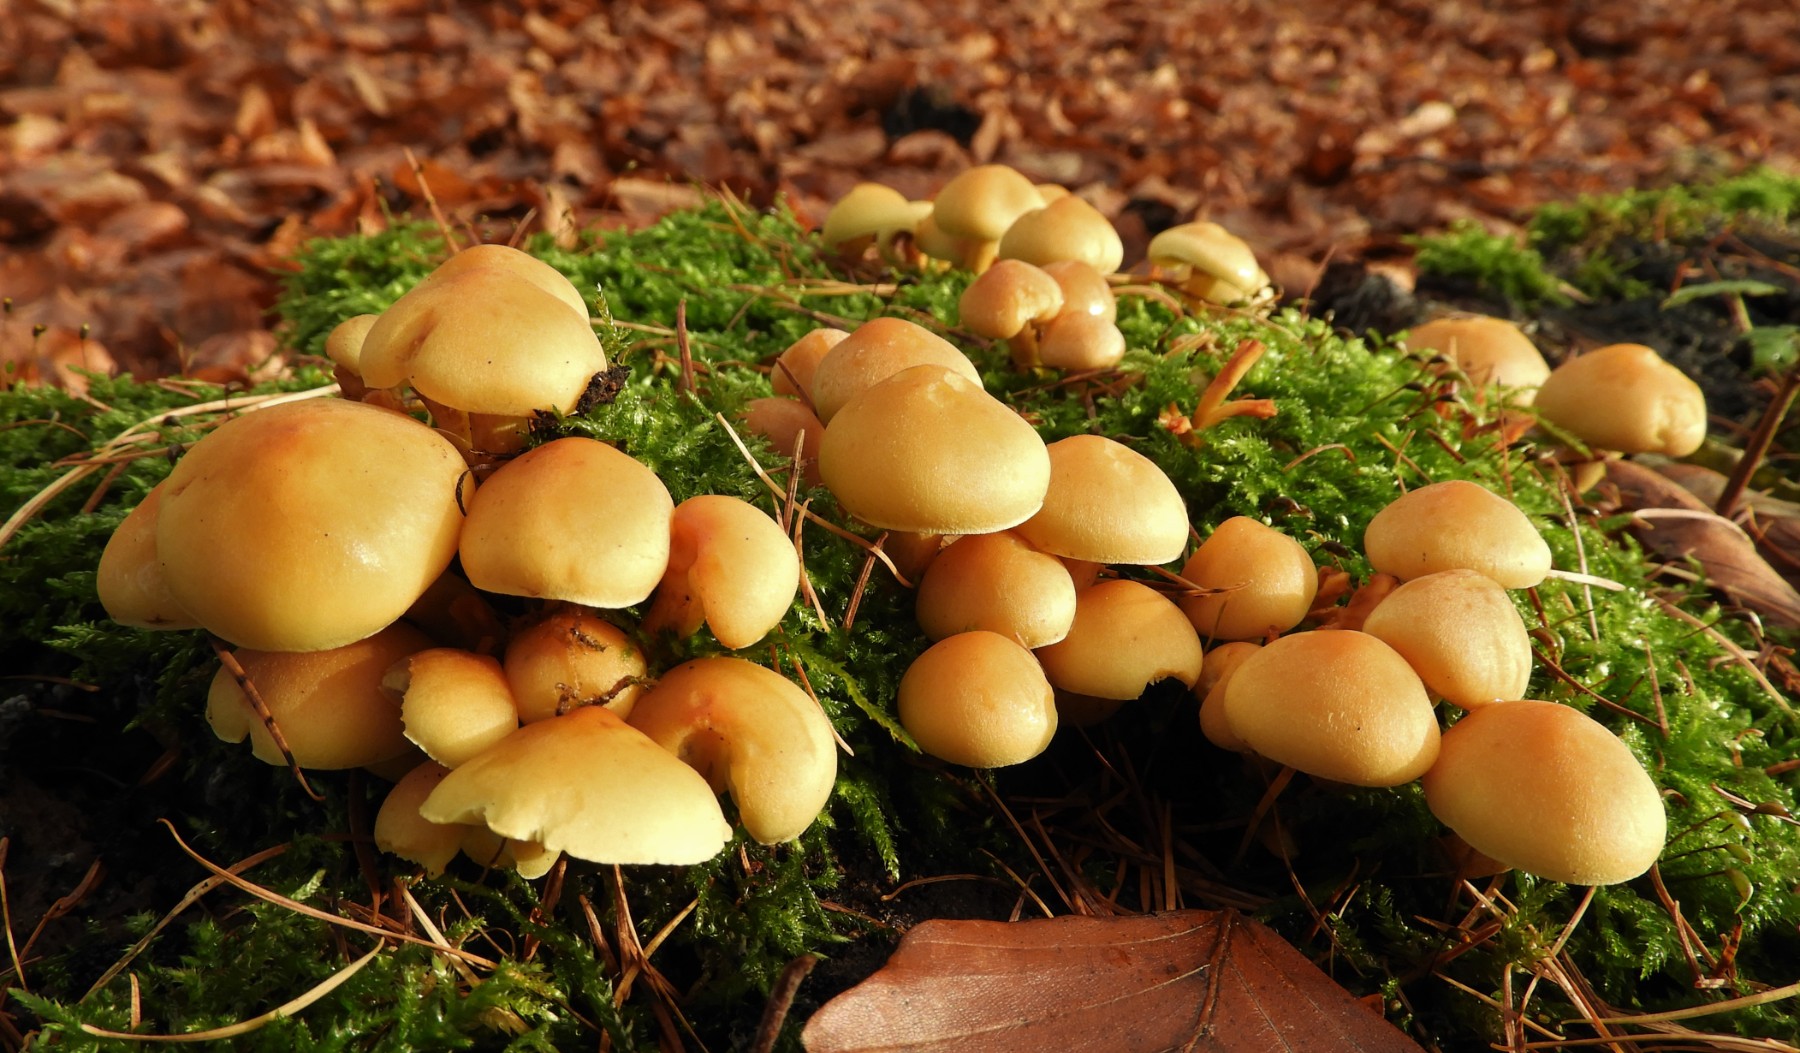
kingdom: Fungi
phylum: Basidiomycota
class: Agaricomycetes
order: Agaricales
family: Strophariaceae
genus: Hypholoma
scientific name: Hypholoma capnoides
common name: gran-svovlhat
